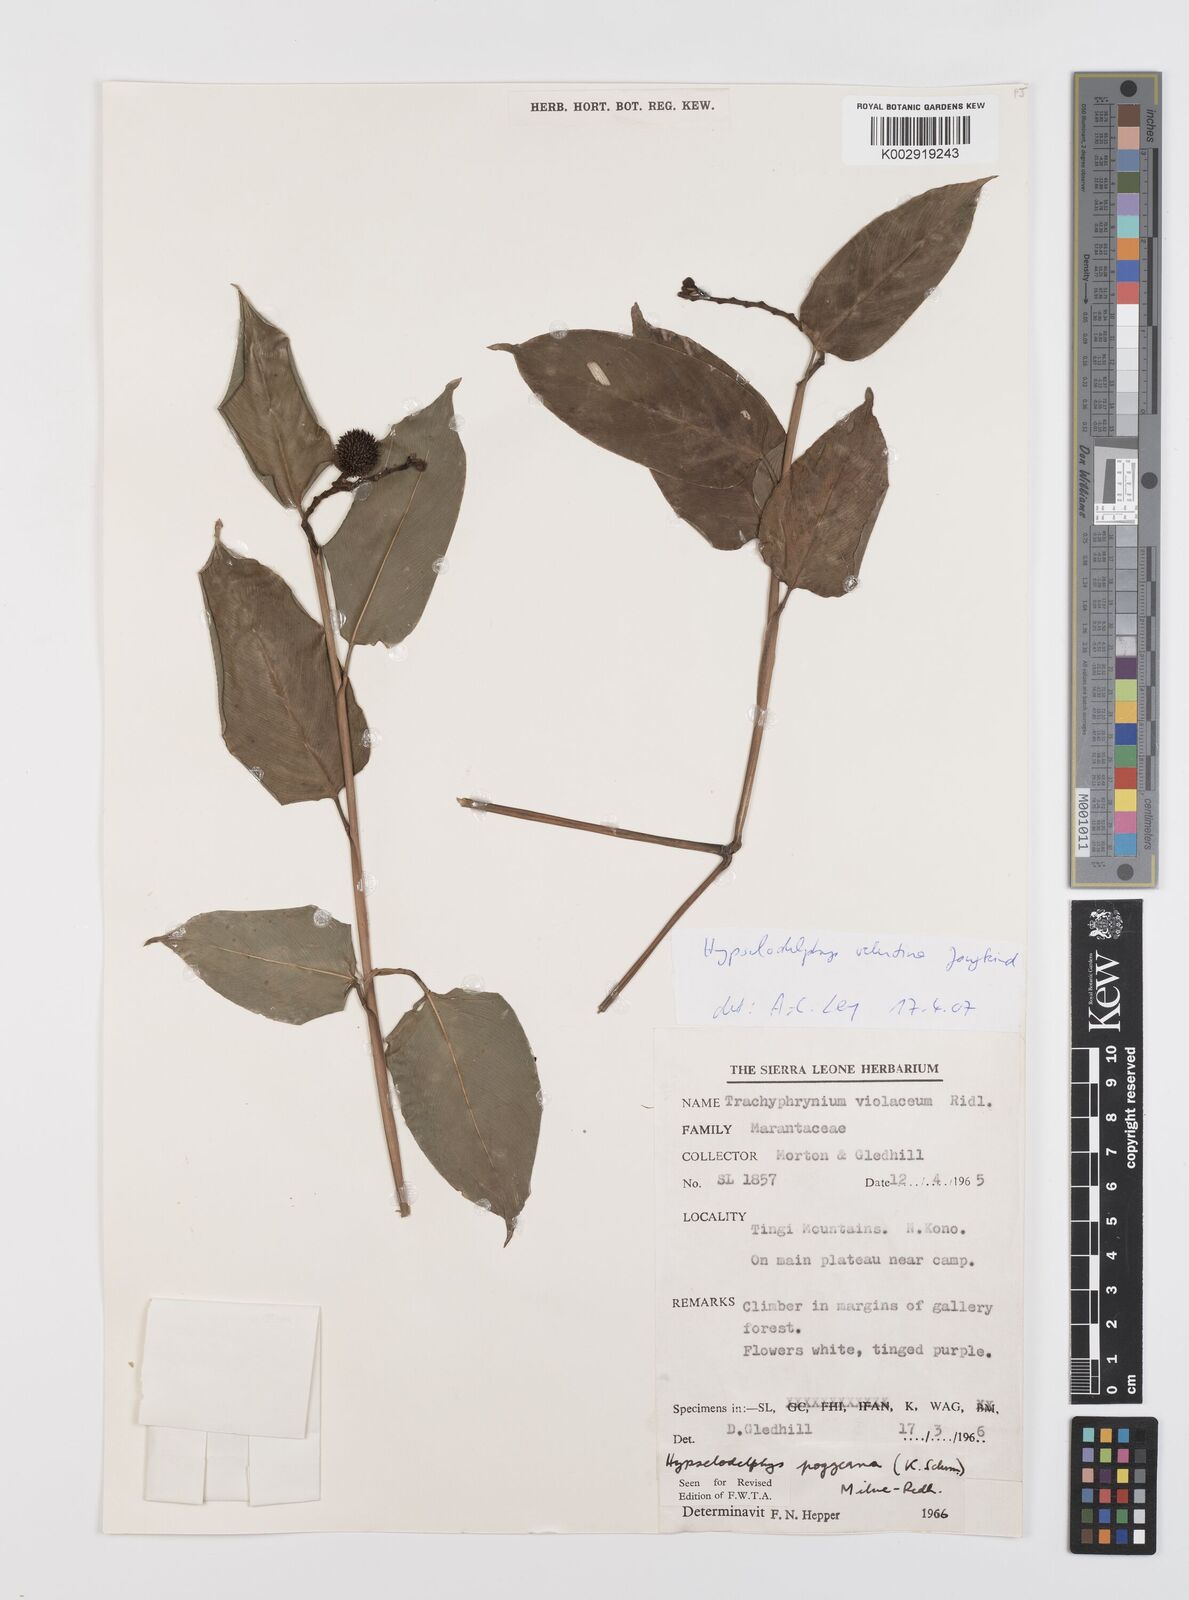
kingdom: Plantae
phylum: Tracheophyta
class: Liliopsida
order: Zingiberales
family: Marantaceae
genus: Hypselodelphys
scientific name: Hypselodelphys velutina
